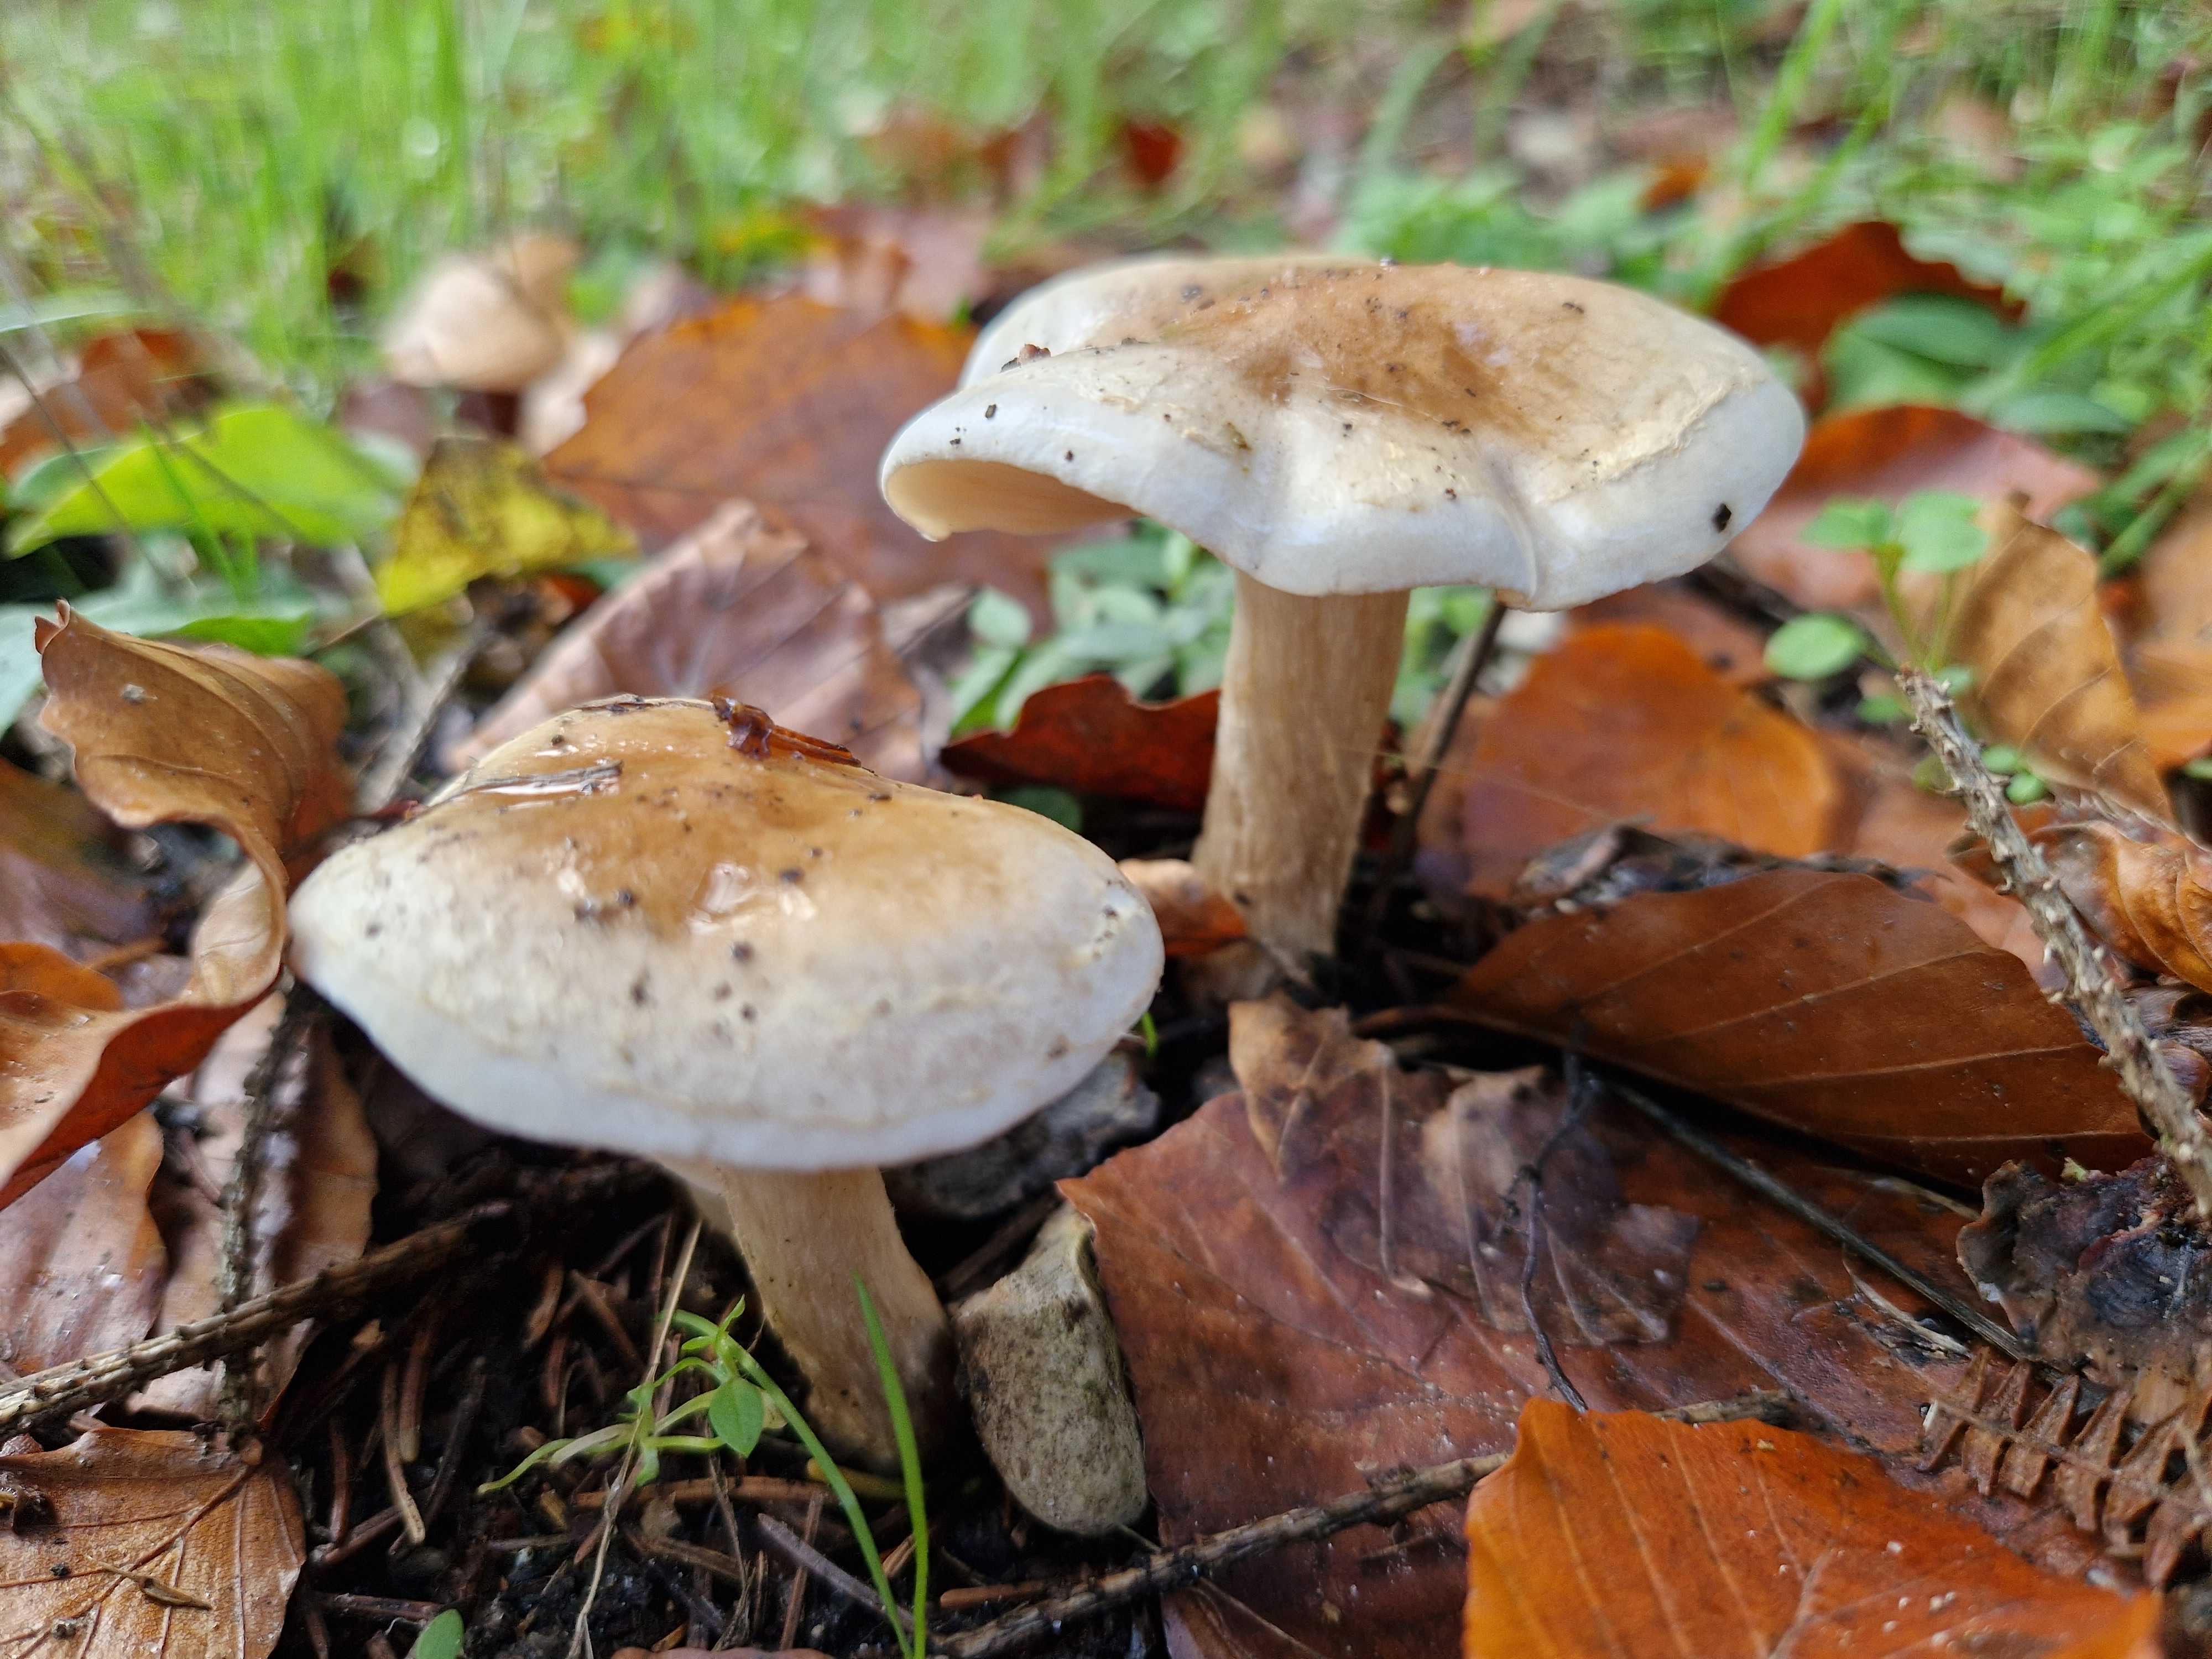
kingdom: Fungi
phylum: Basidiomycota
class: Agaricomycetes
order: Agaricales
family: Hymenogastraceae
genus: Hebeloma
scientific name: Hebeloma mesophaeum
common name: lerbrun tåreblad
